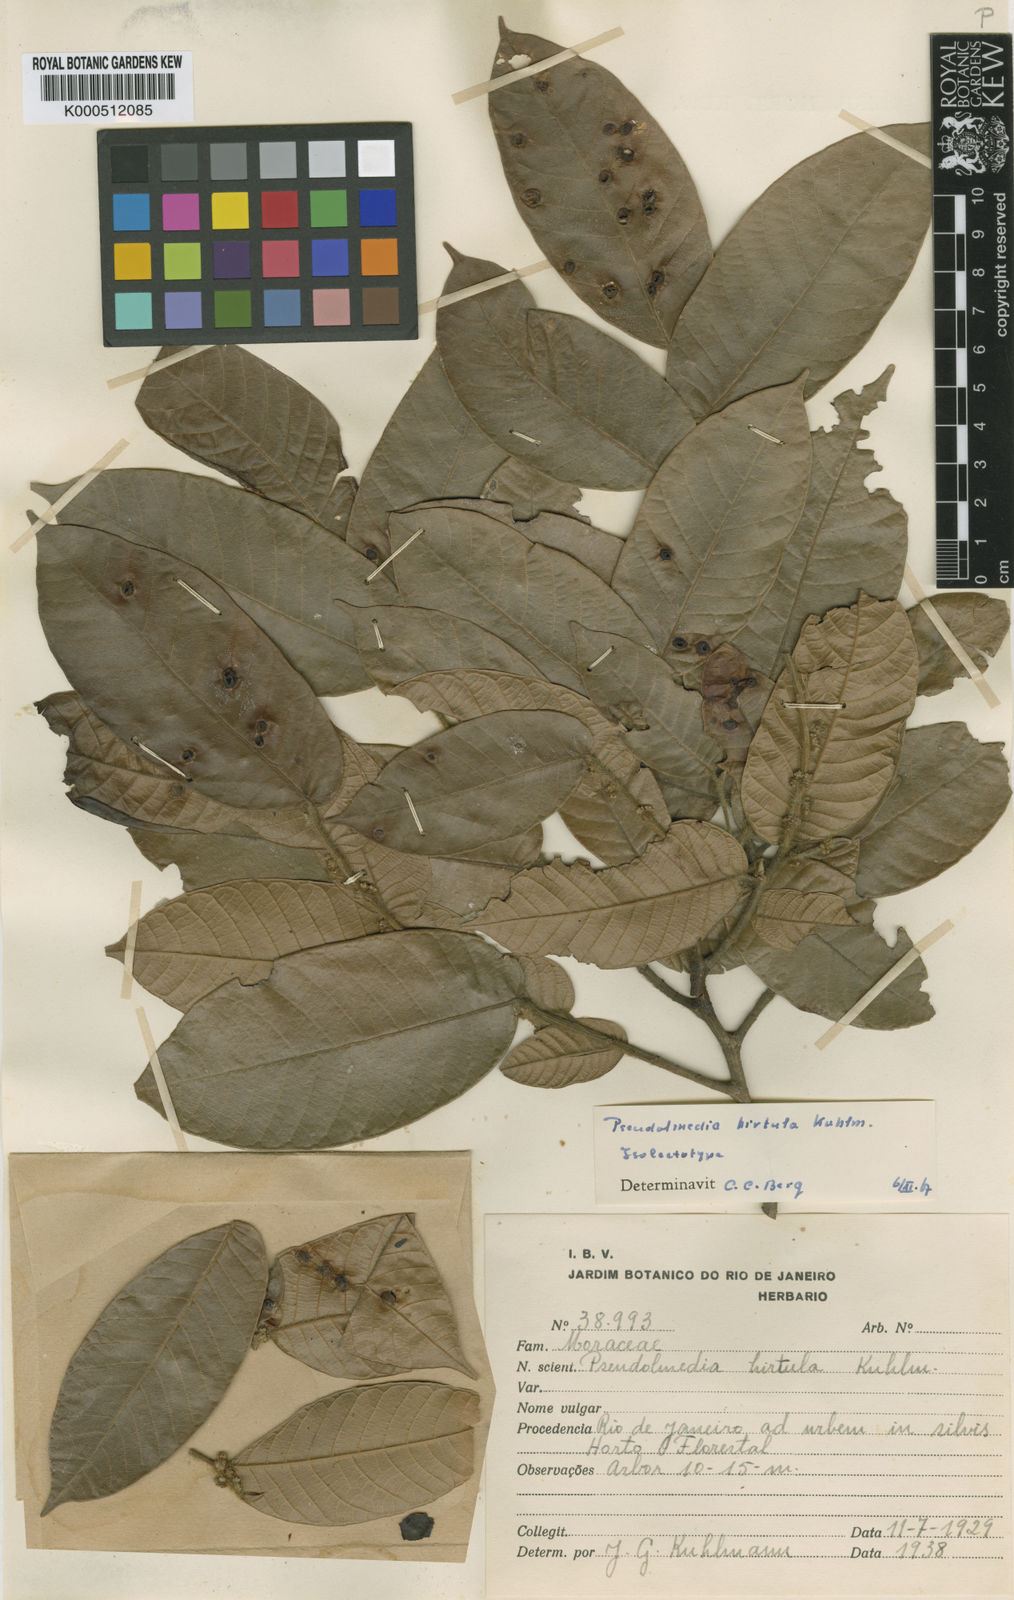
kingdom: Plantae
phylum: Tracheophyta
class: Magnoliopsida
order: Rosales
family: Moraceae
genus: Pseudolmedia
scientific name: Pseudolmedia hirtula
